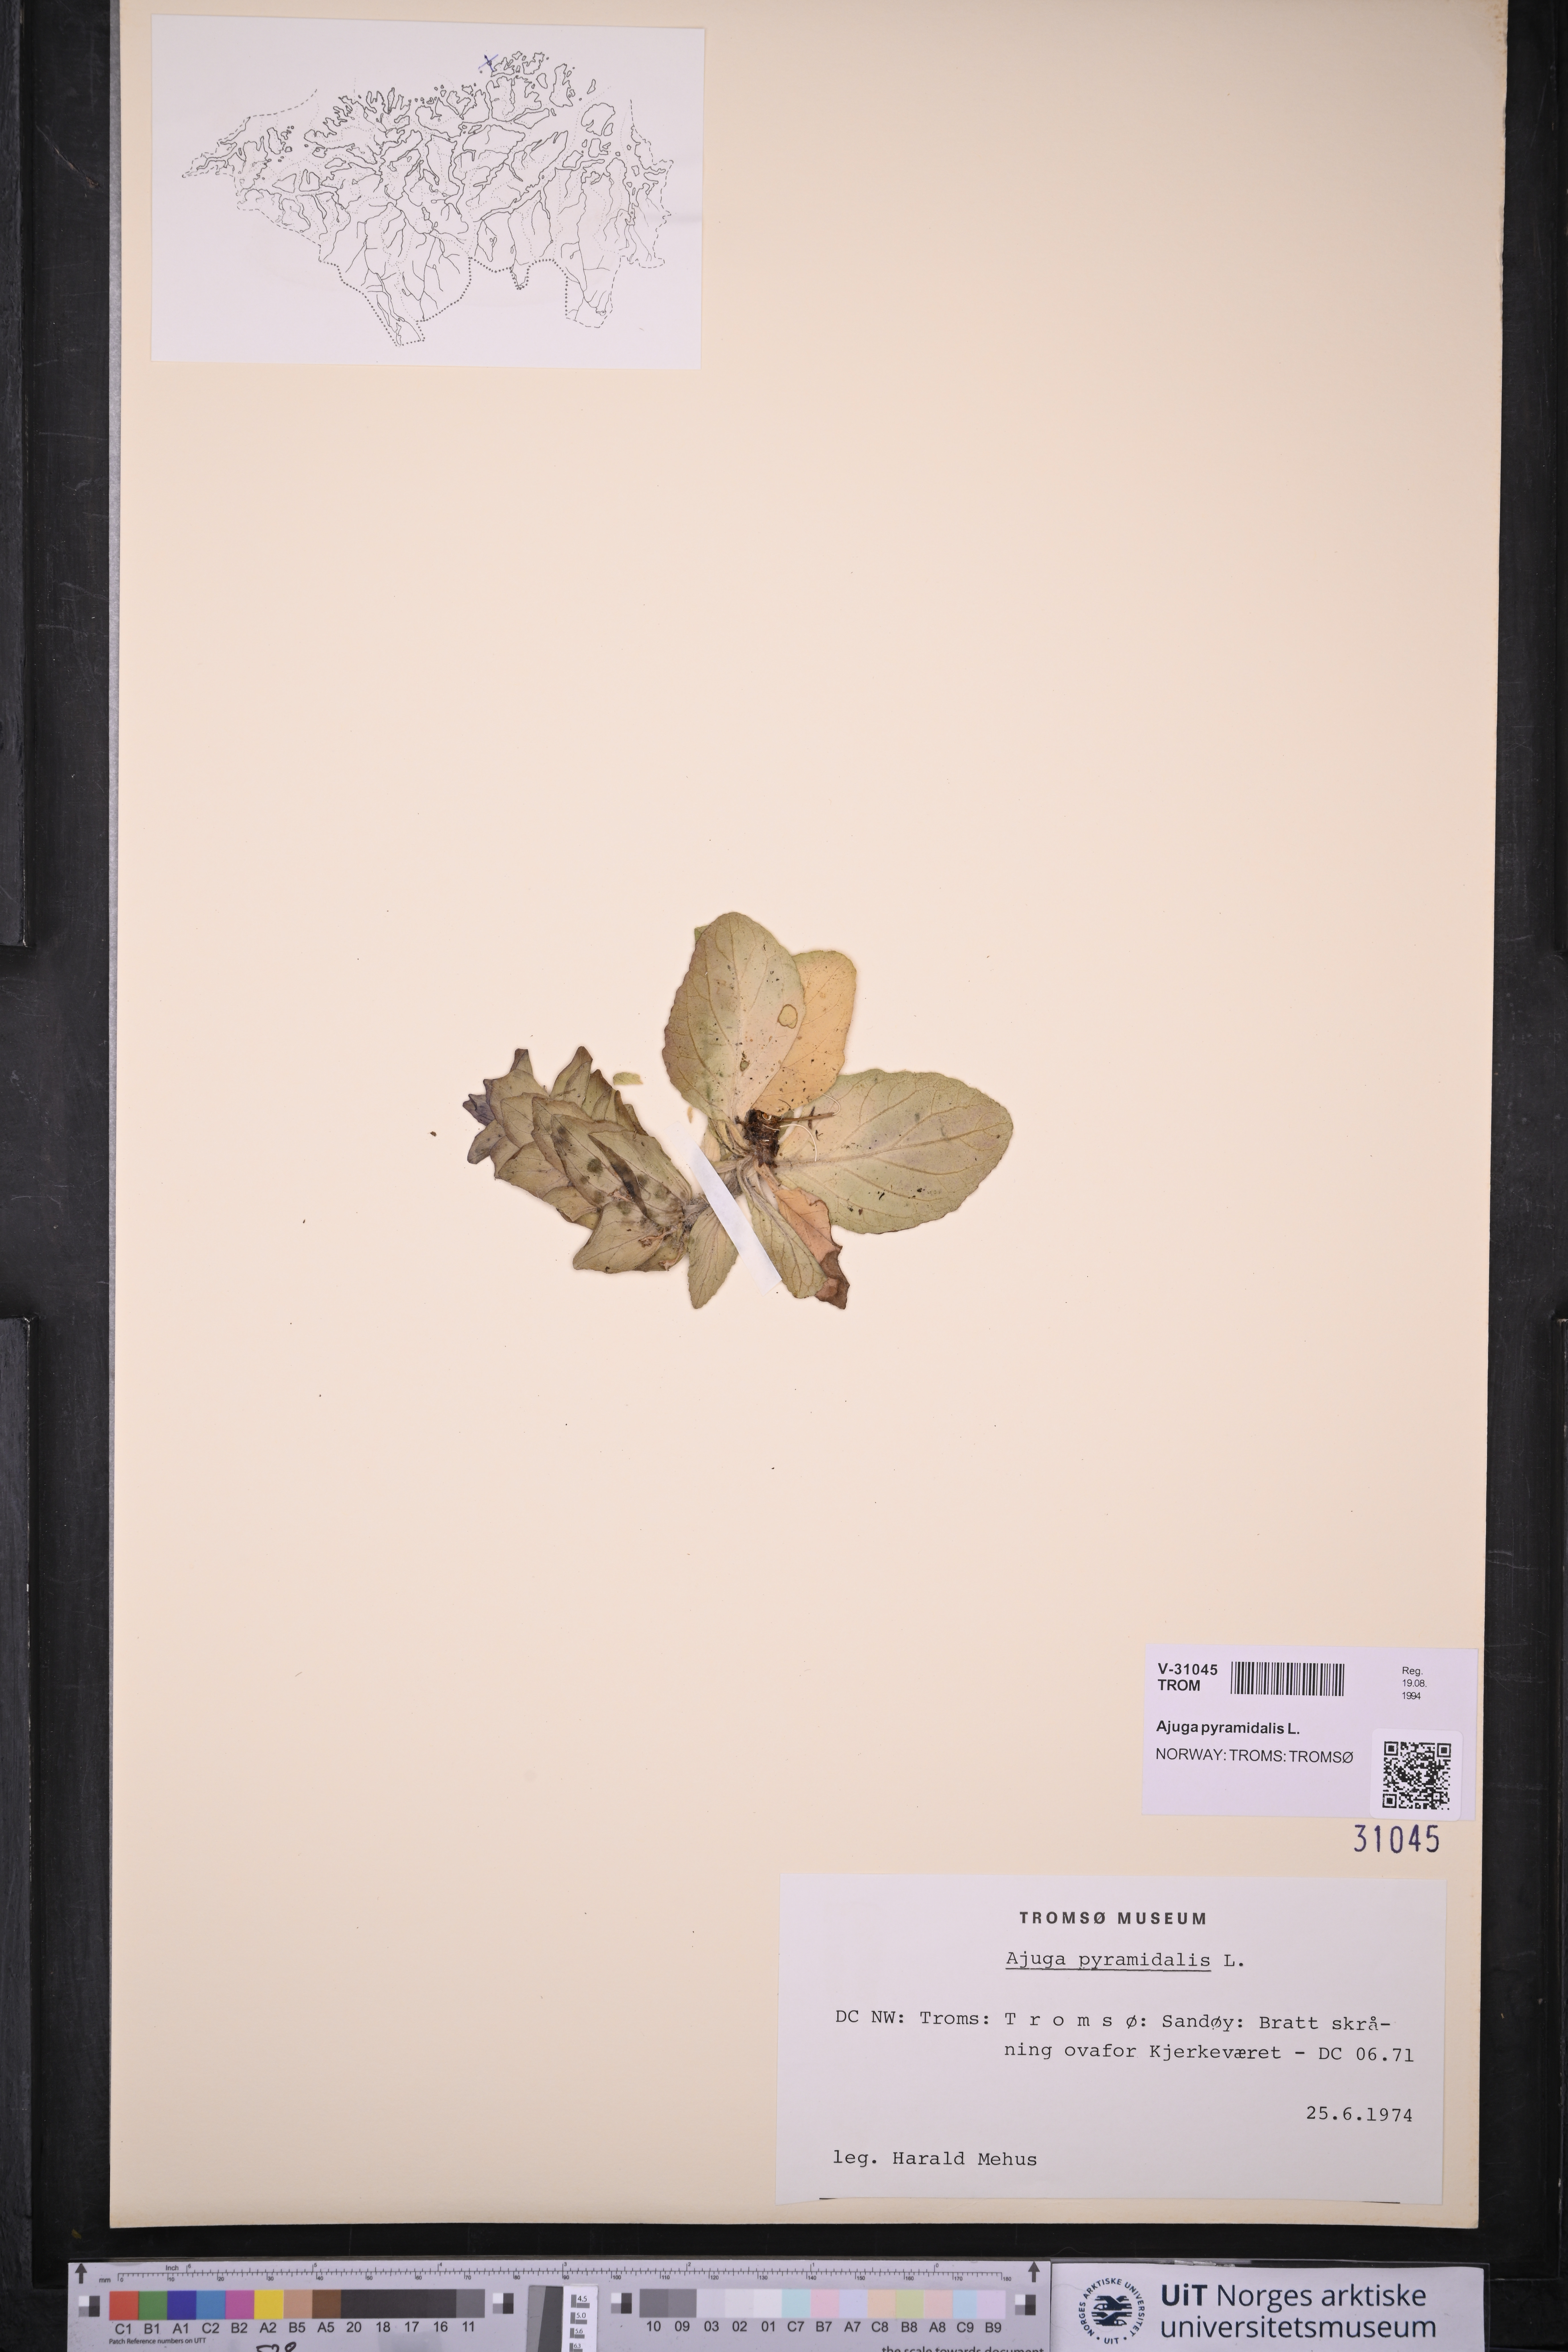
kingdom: Plantae
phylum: Tracheophyta
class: Magnoliopsida
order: Lamiales
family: Lamiaceae
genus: Ajuga
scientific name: Ajuga pyramidalis
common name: Pyramid bugle
